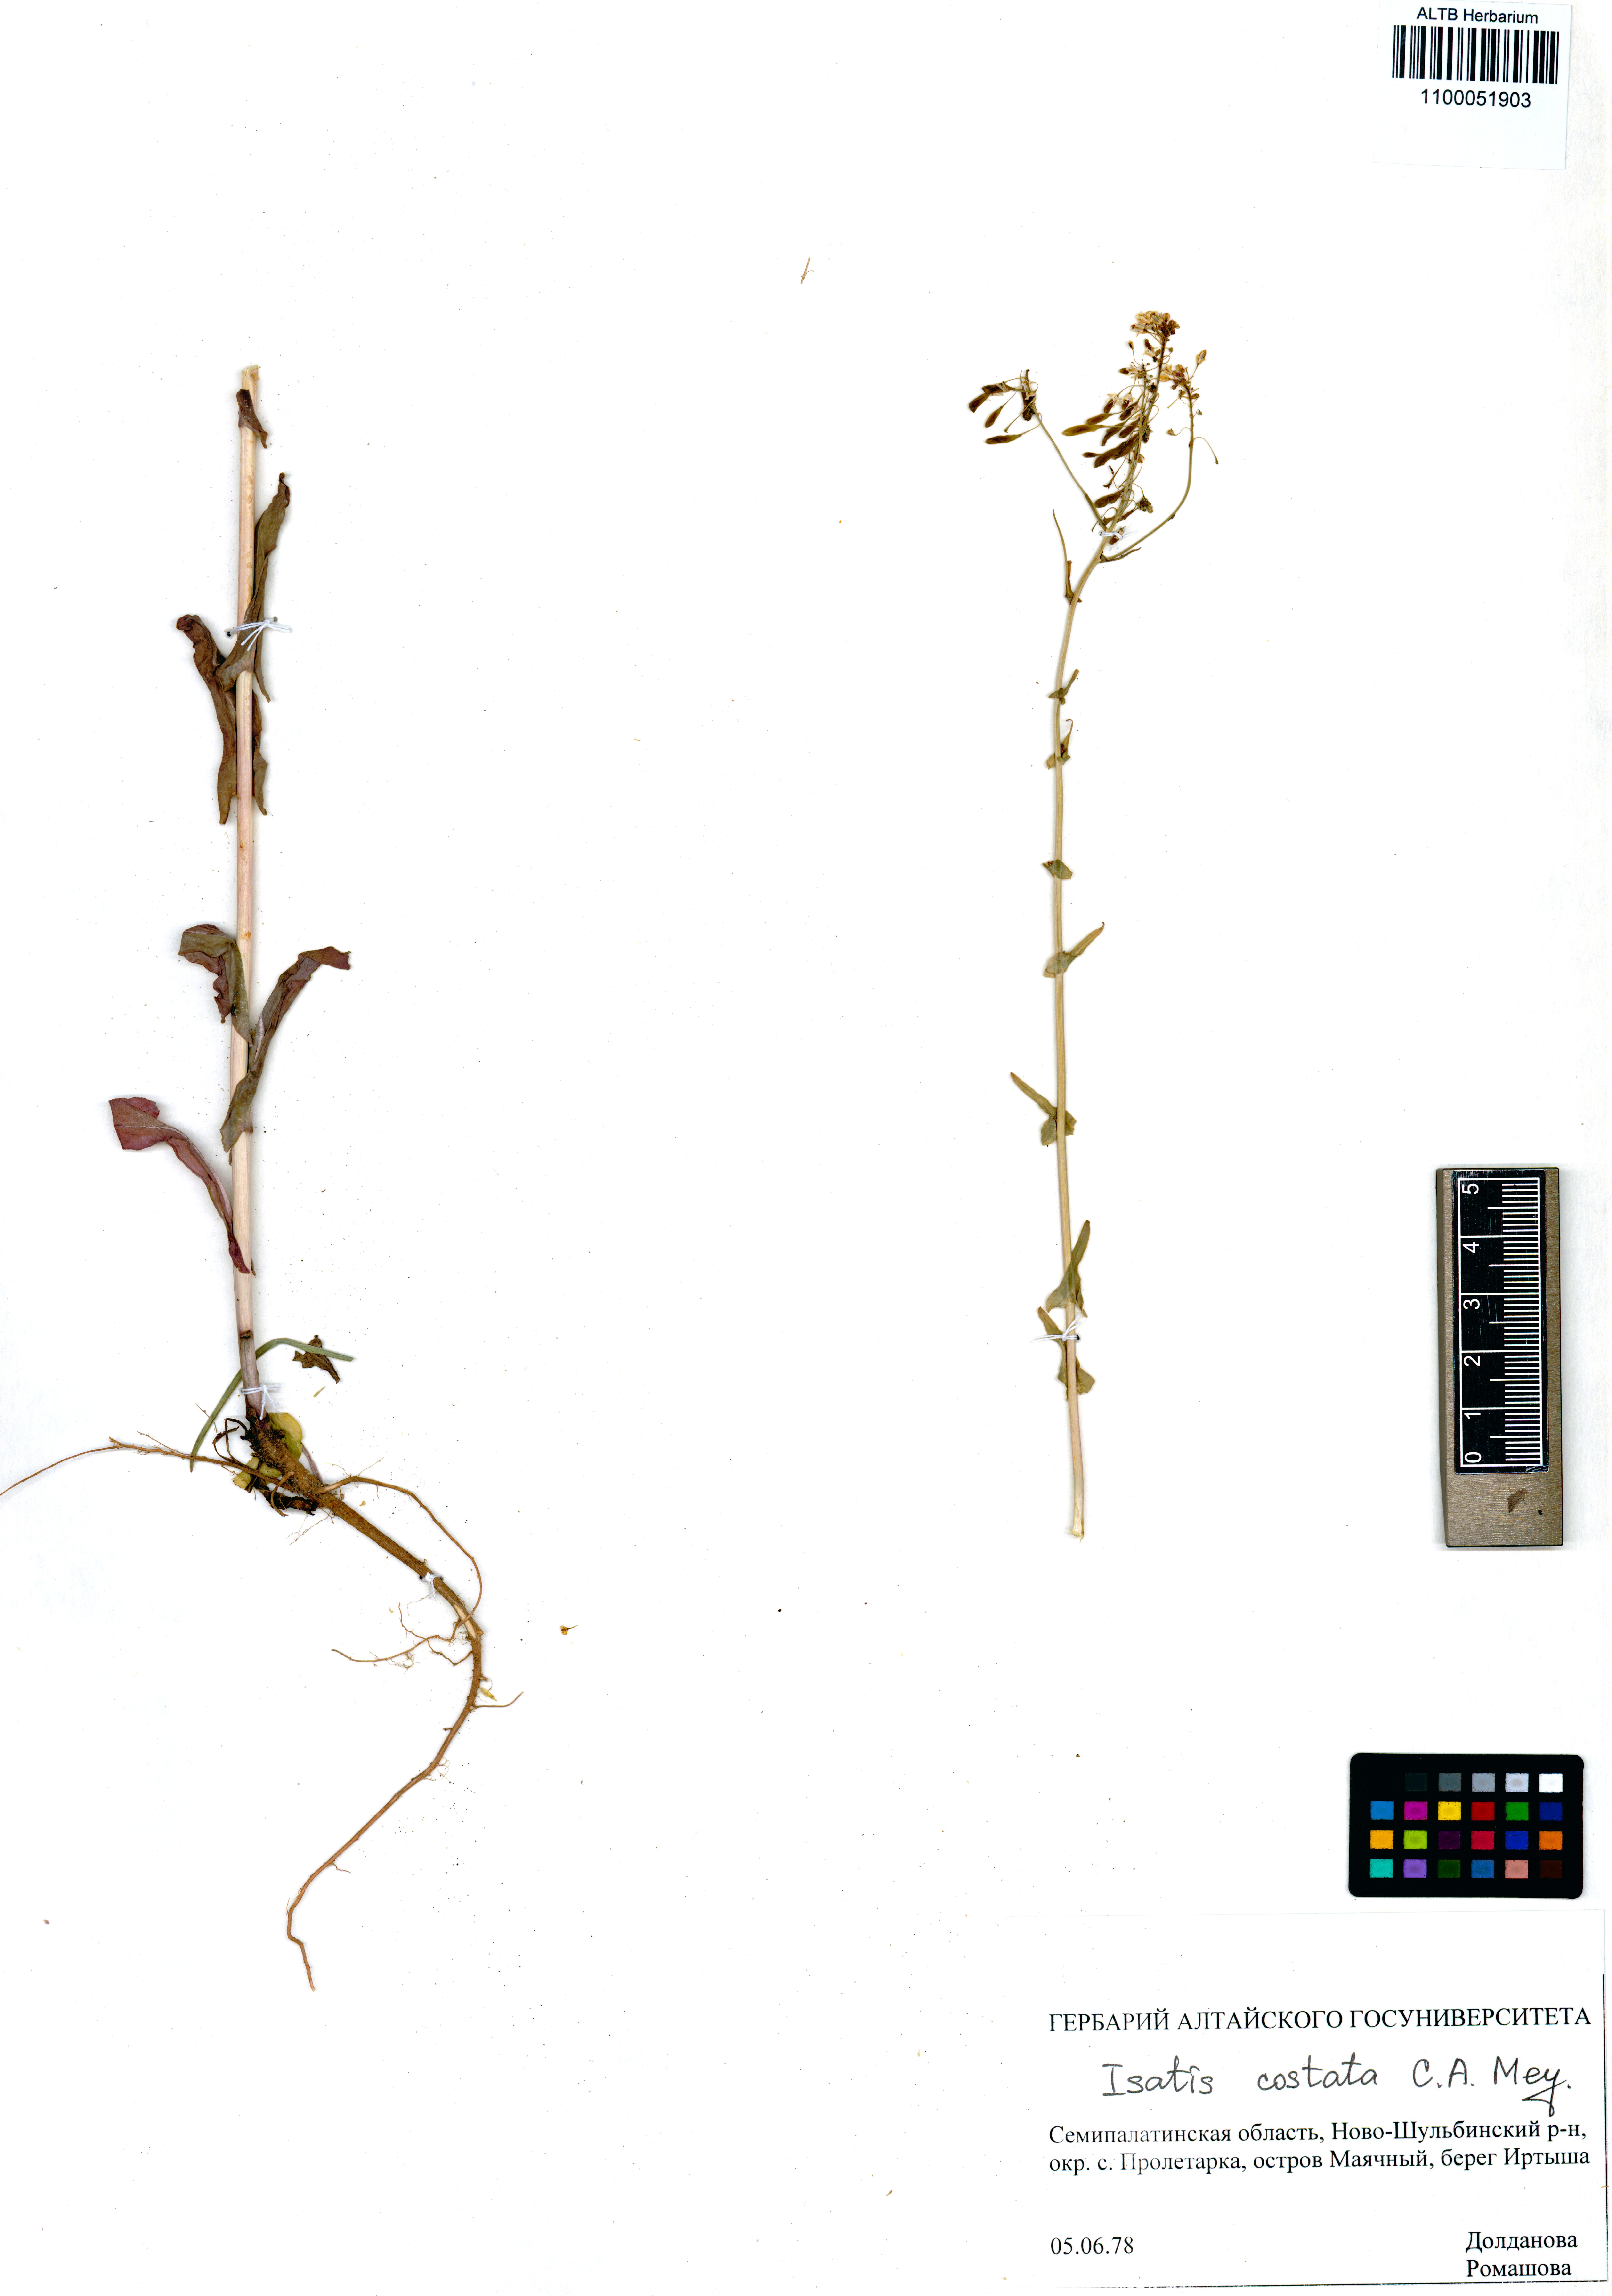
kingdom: Plantae
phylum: Tracheophyta
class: Magnoliopsida
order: Brassicales
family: Brassicaceae
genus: Isatis
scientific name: Isatis costata
